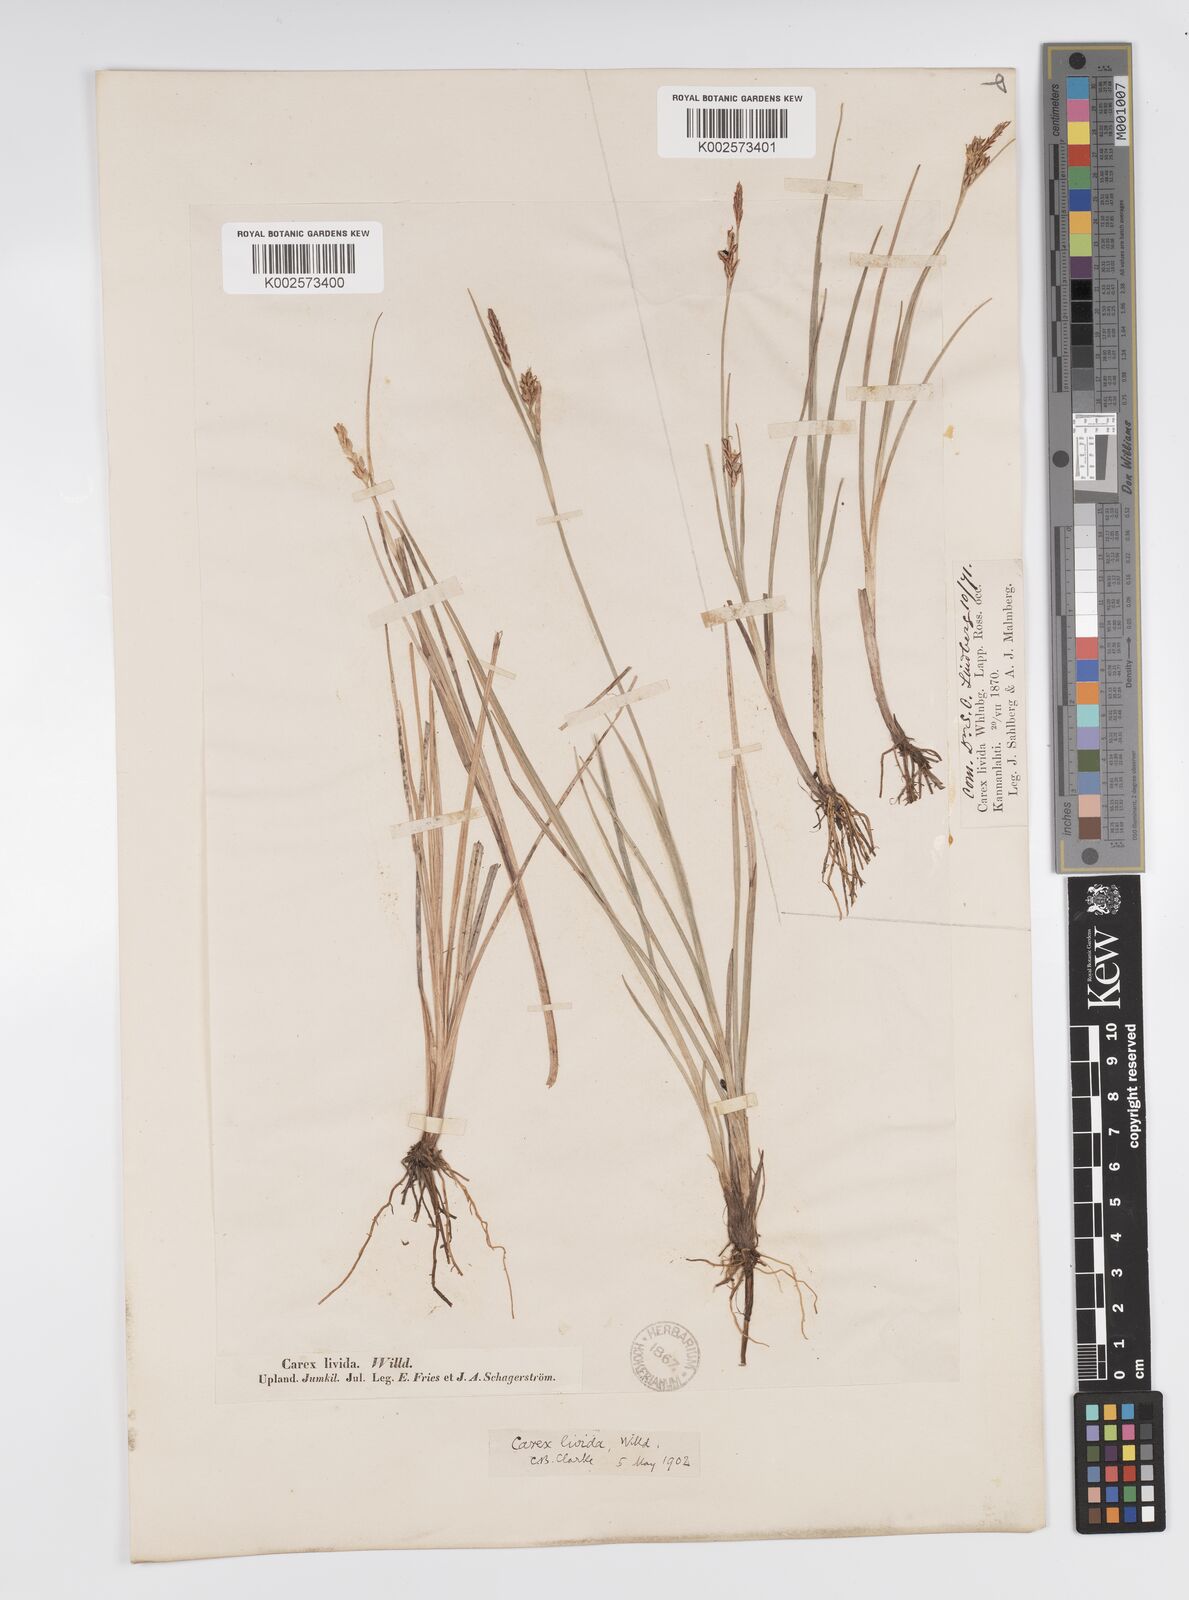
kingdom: Plantae
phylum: Tracheophyta
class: Liliopsida
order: Poales
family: Cyperaceae
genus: Carex
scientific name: Carex livida
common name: Livid sedge
